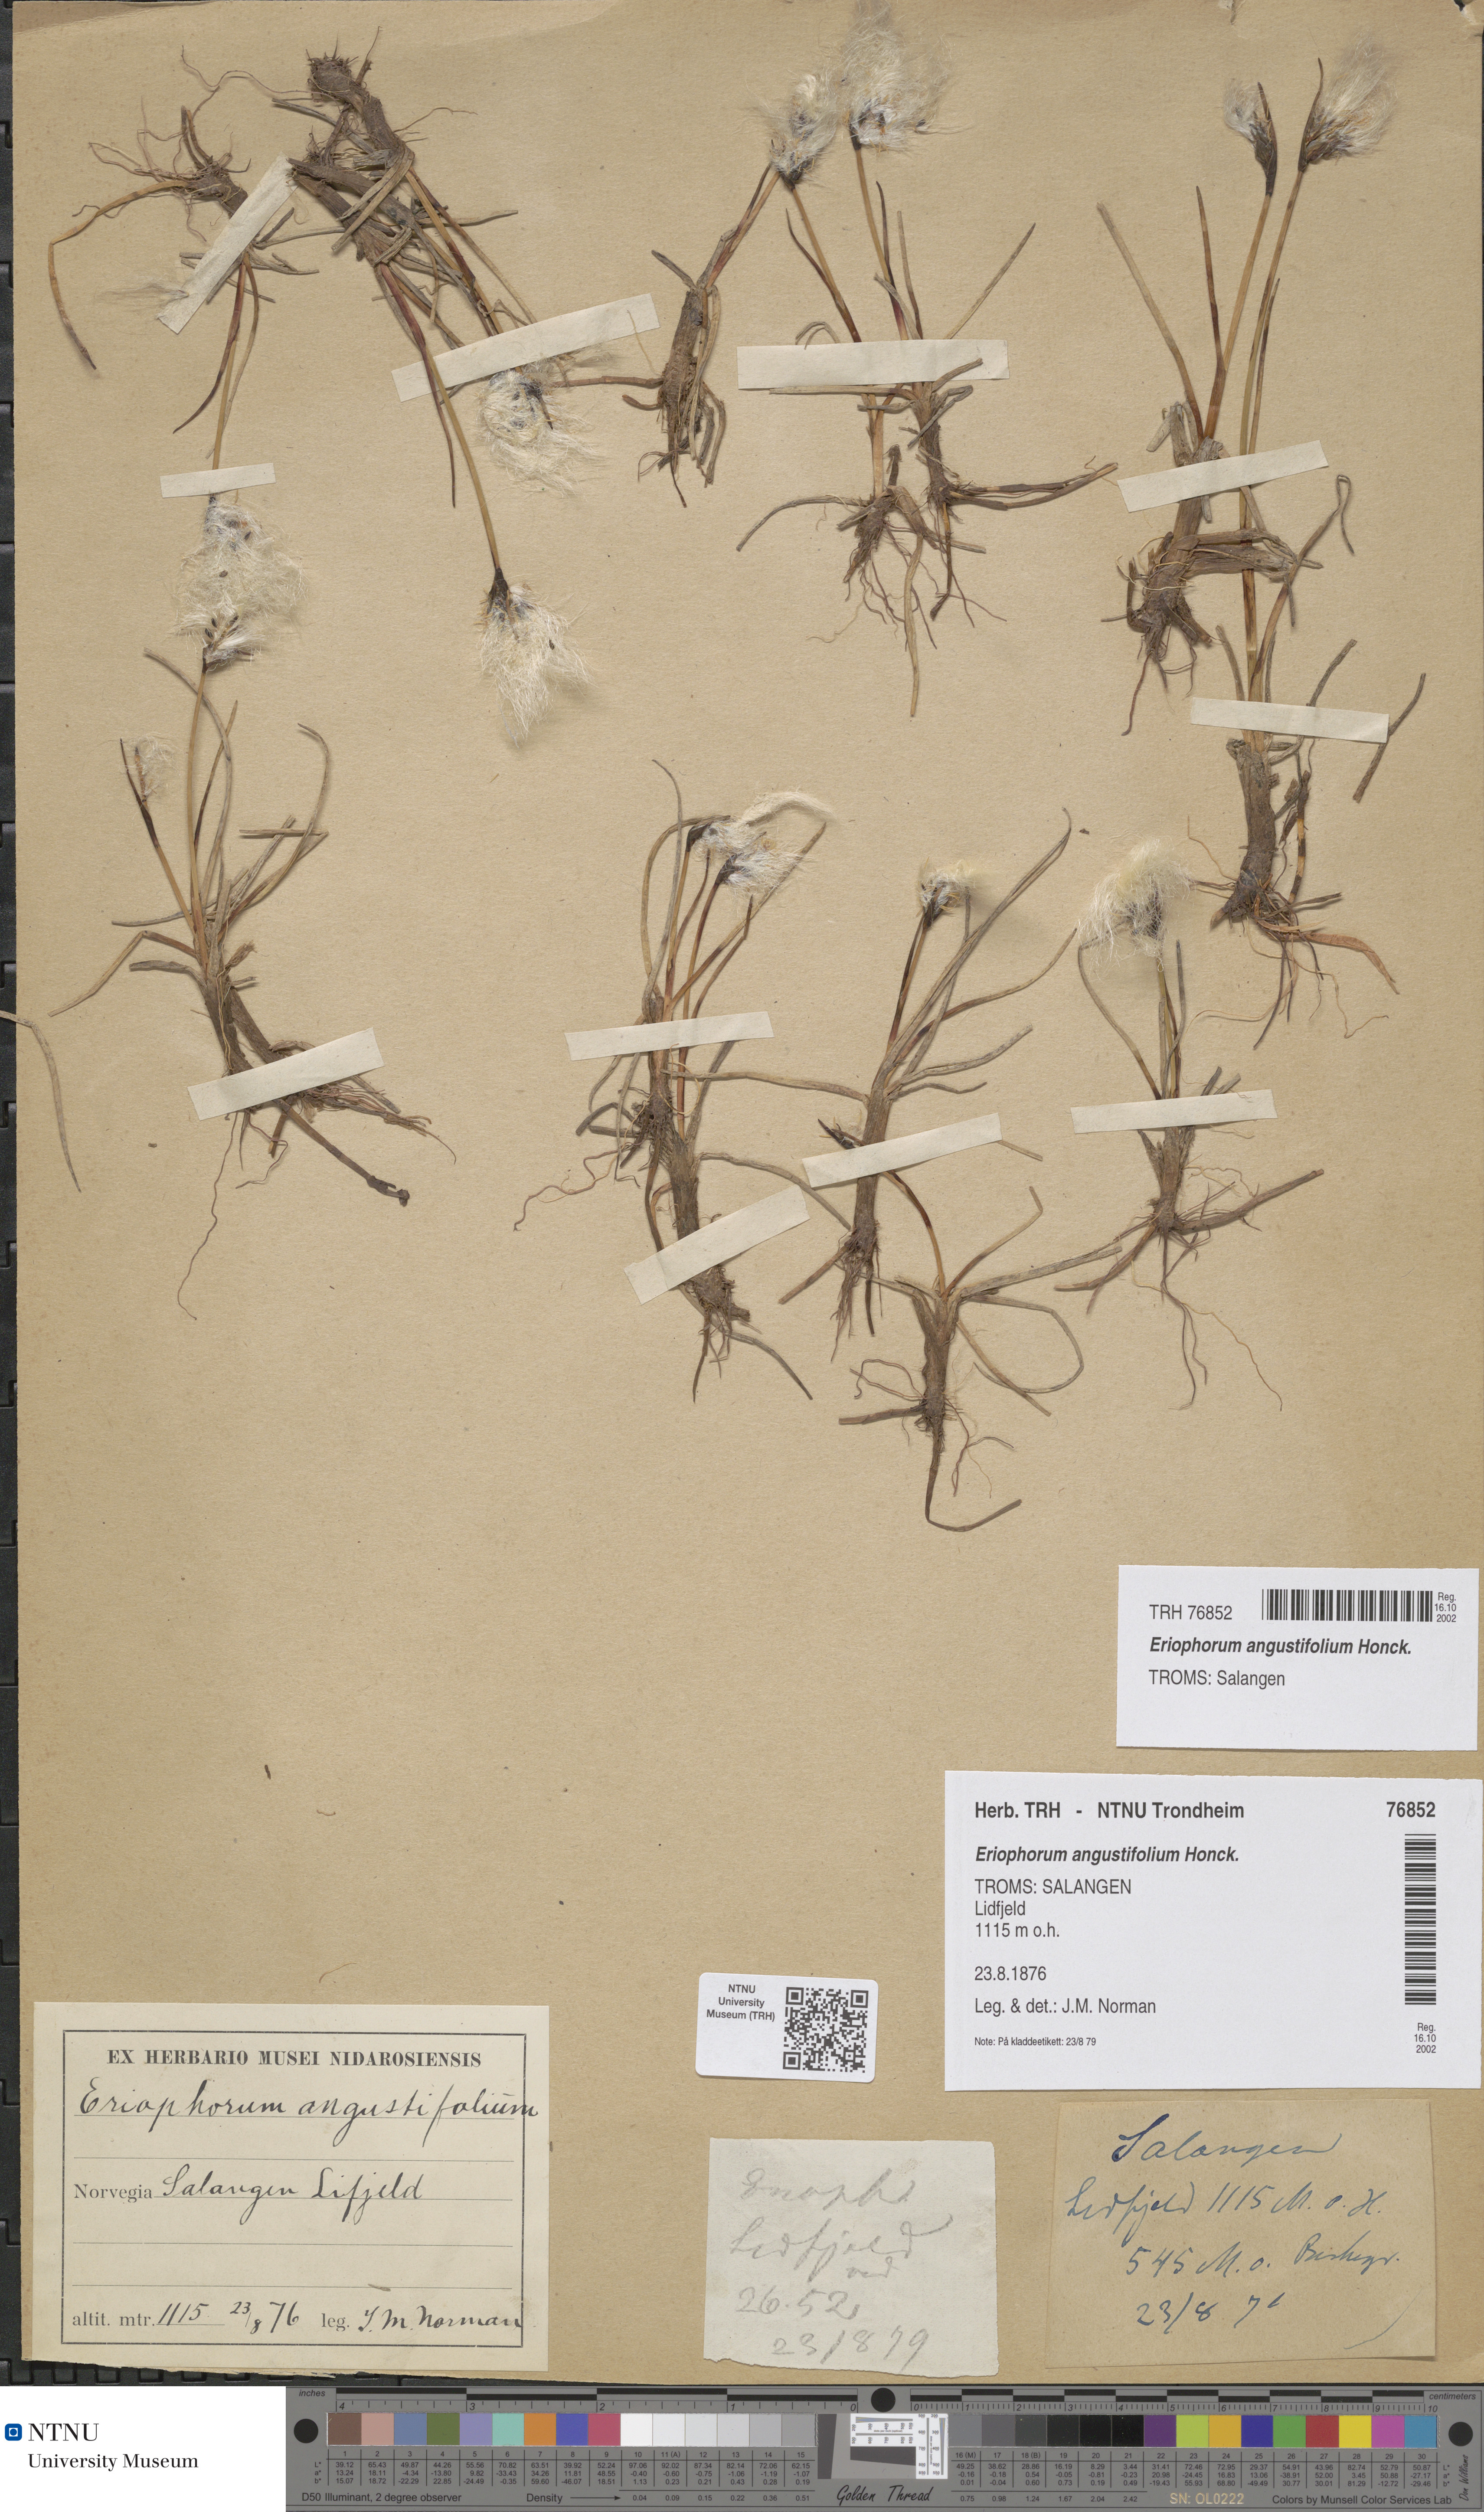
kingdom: Plantae
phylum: Tracheophyta
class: Liliopsida
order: Poales
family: Cyperaceae
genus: Eriophorum
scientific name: Eriophorum angustifolium
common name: Common cottongrass
